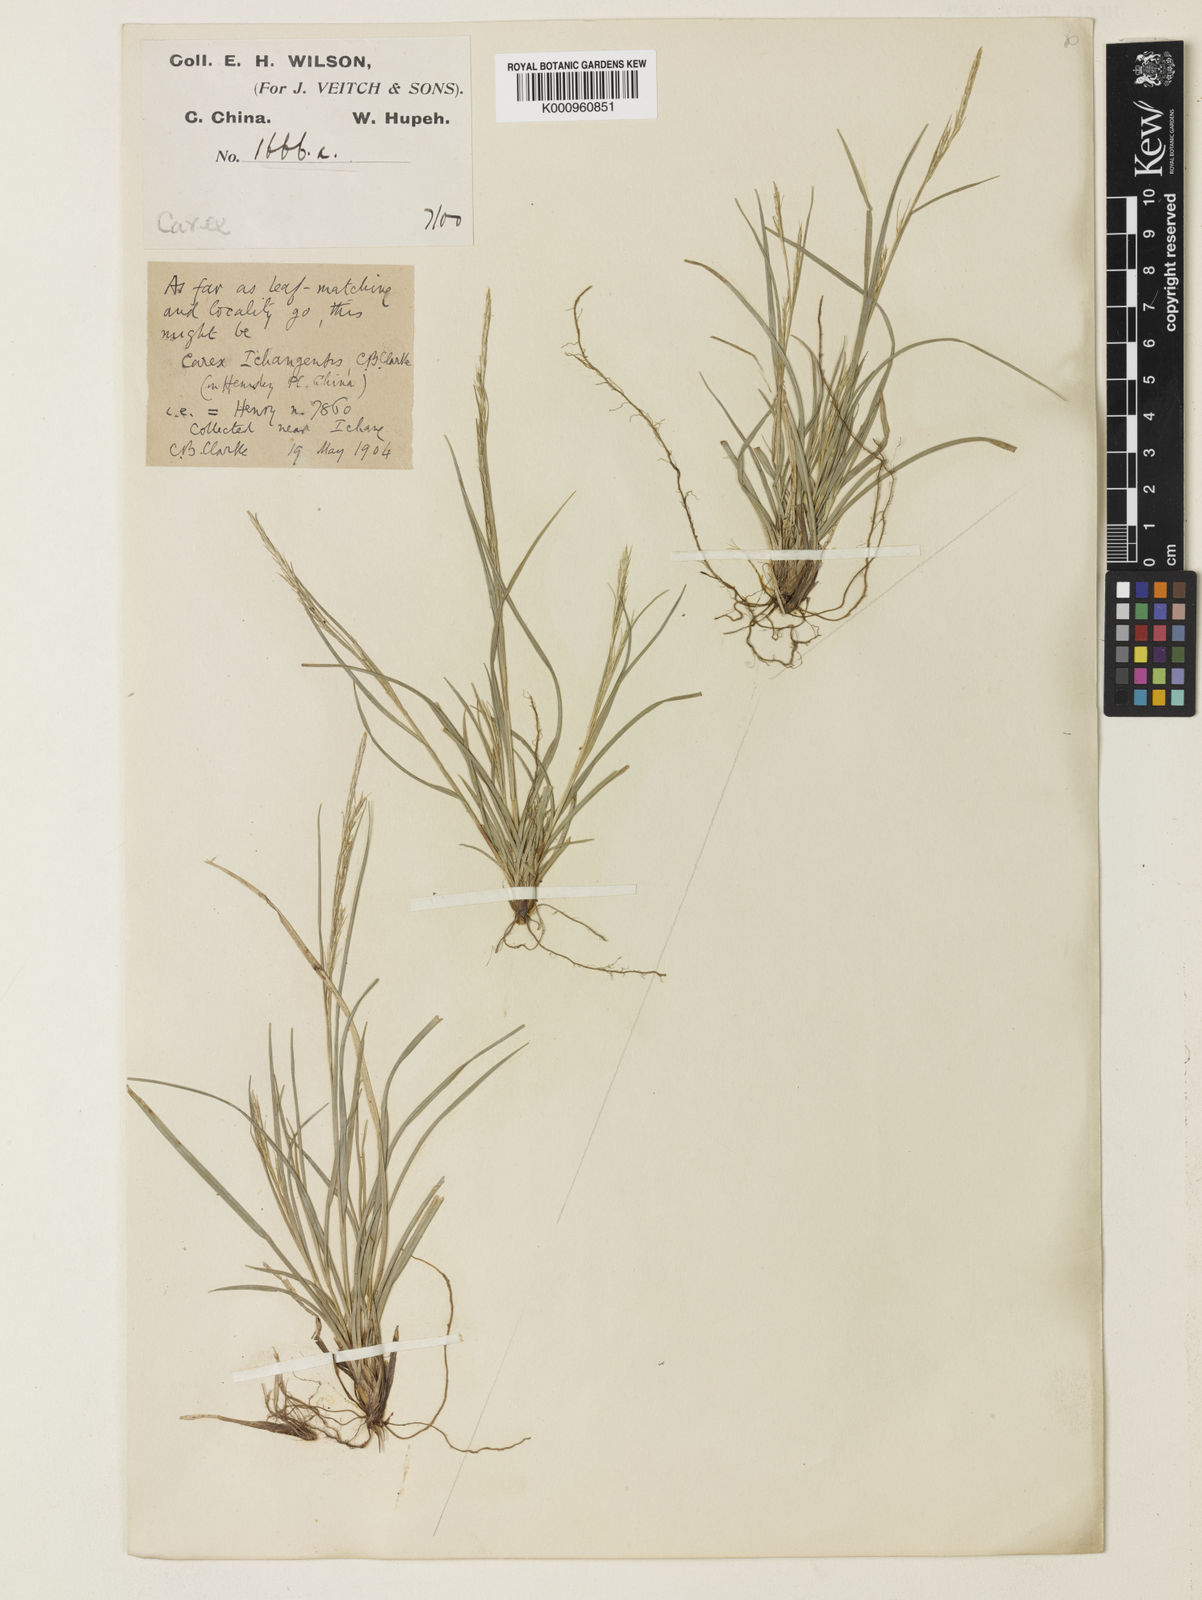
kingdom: Plantae
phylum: Tracheophyta
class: Liliopsida
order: Poales
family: Cyperaceae
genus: Carex
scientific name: Carex davidii
